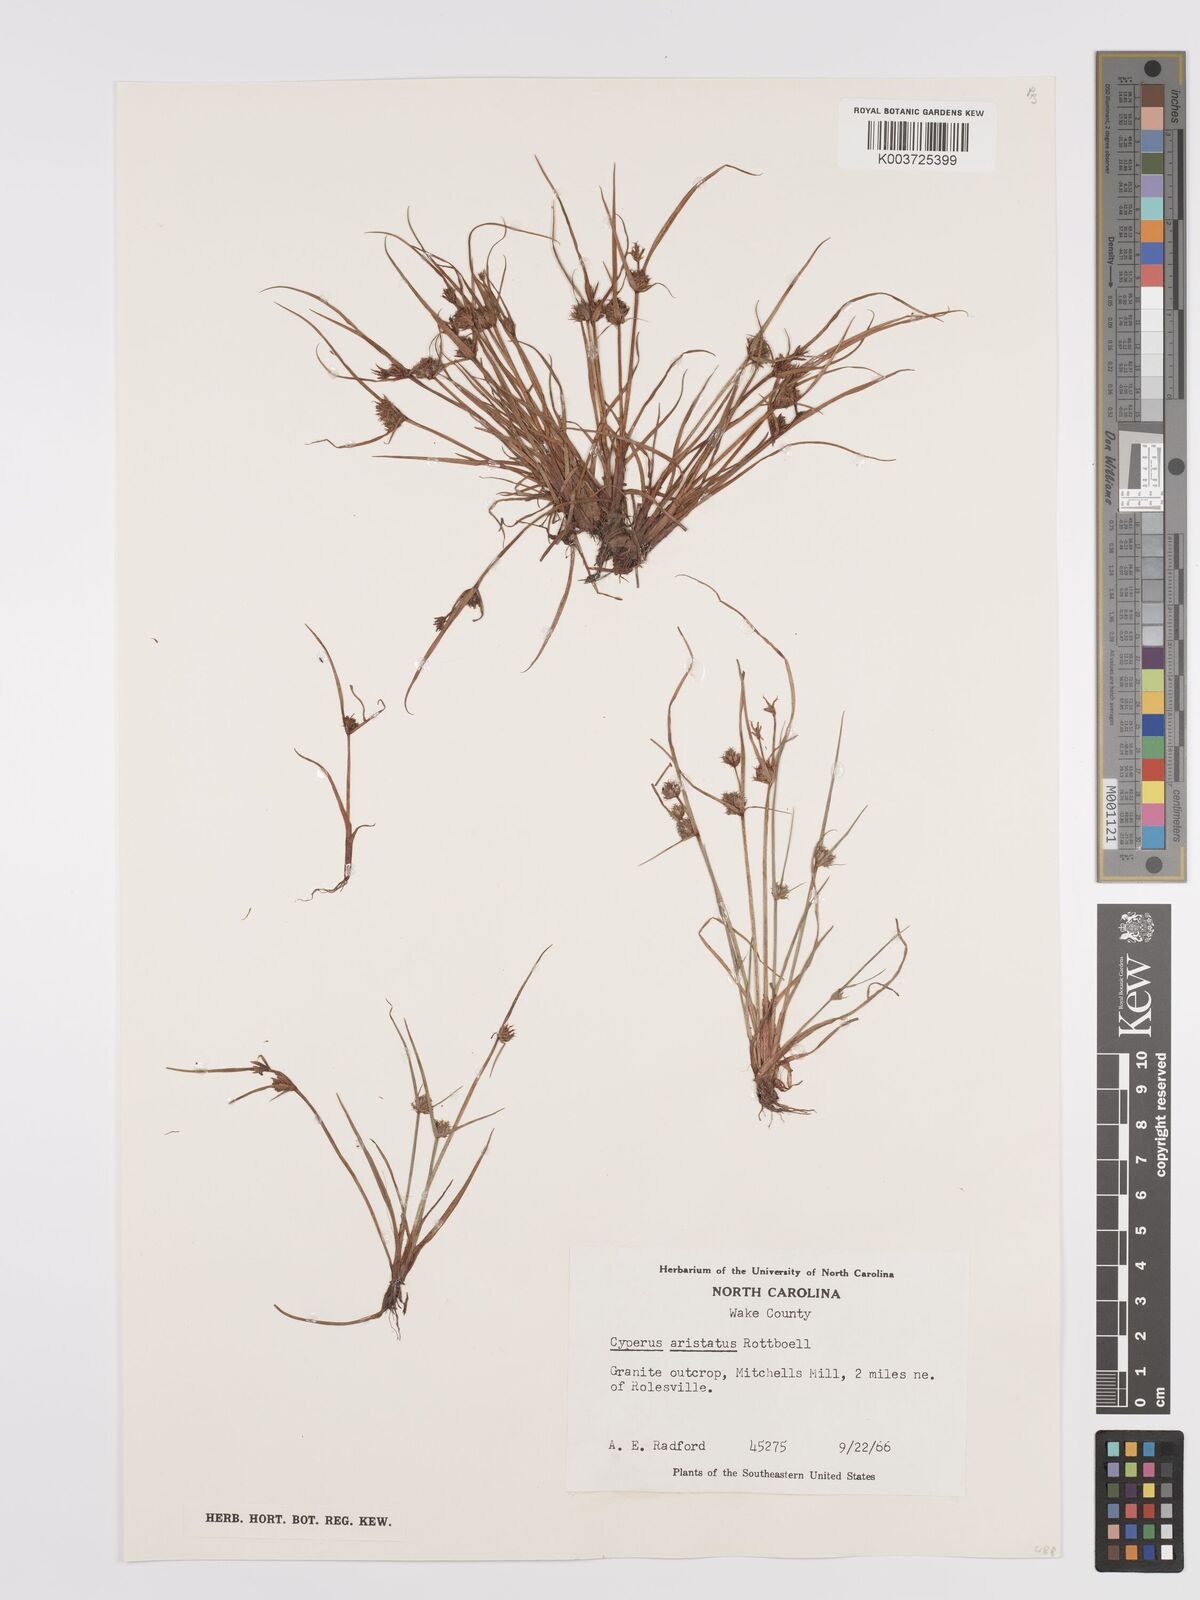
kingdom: Plantae
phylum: Tracheophyta
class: Liliopsida
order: Poales
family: Cyperaceae
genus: Cyperus
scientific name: Cyperus squarrosus
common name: Awned cyperus
